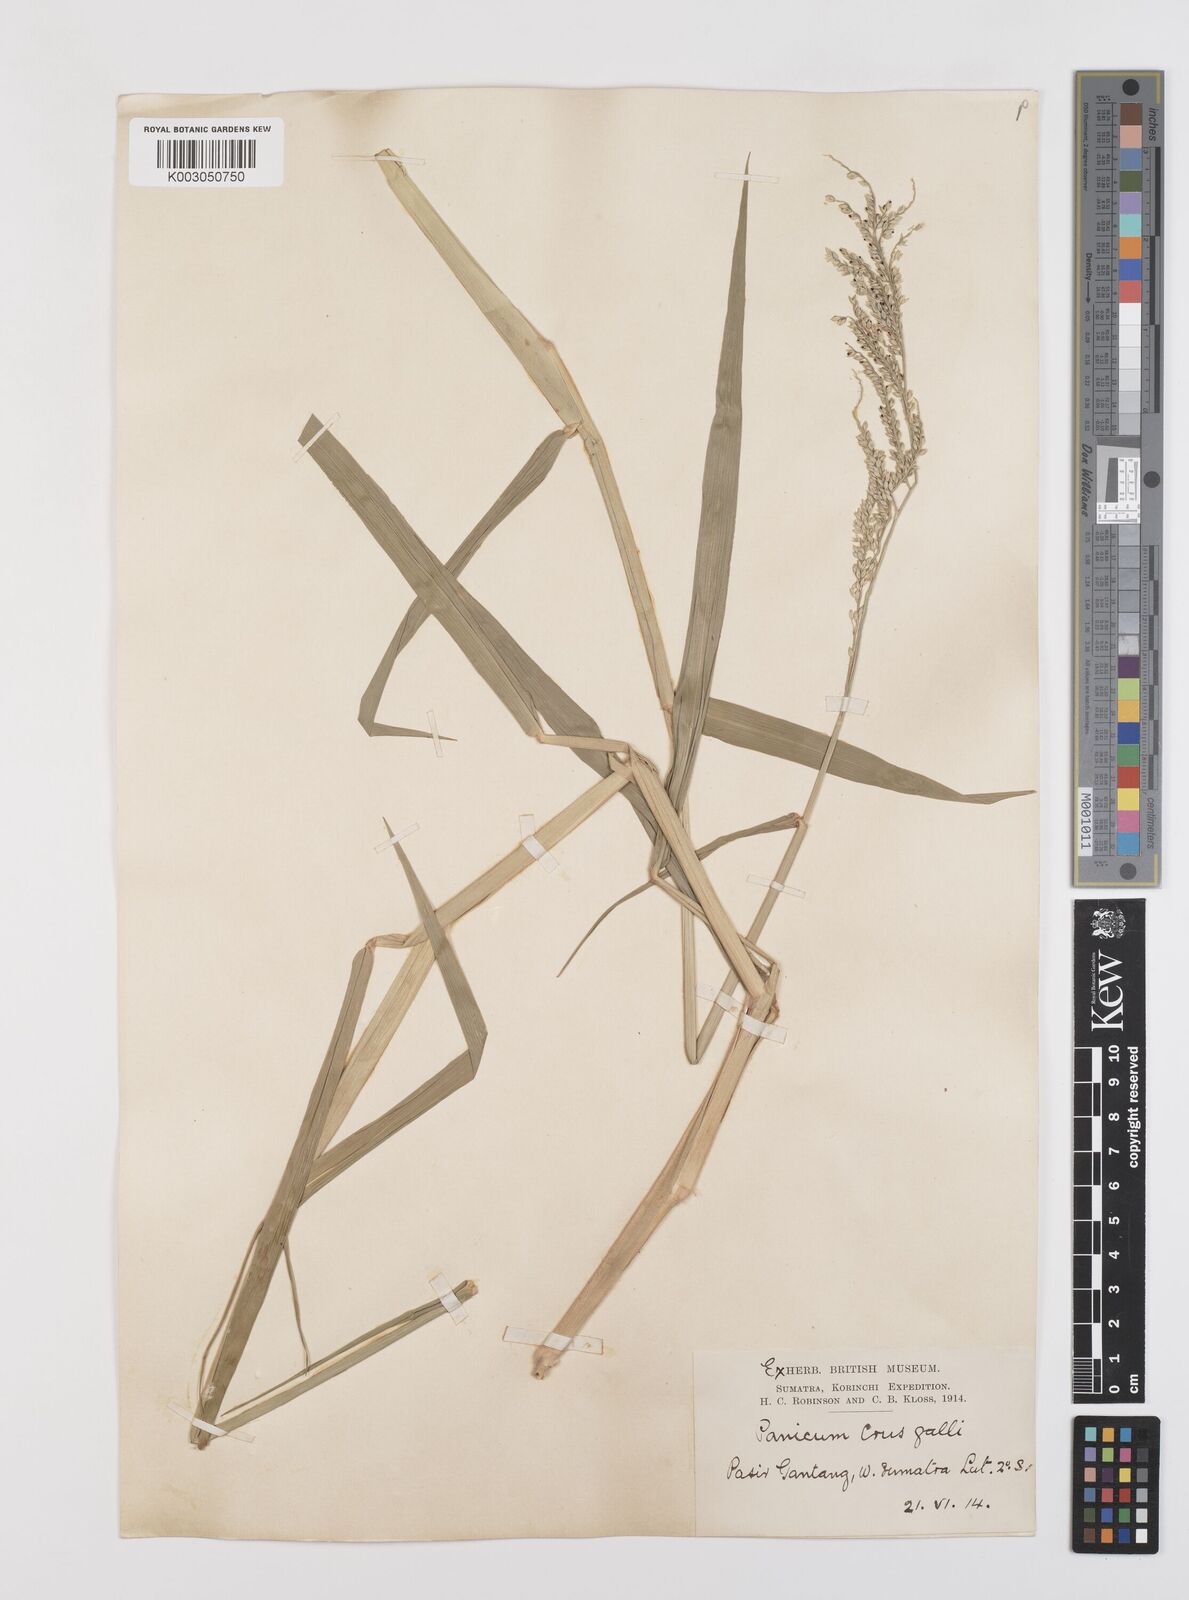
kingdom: Plantae
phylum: Tracheophyta
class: Liliopsida
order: Poales
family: Poaceae
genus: Urochloa
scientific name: Urochloa mutica
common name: Para grass
